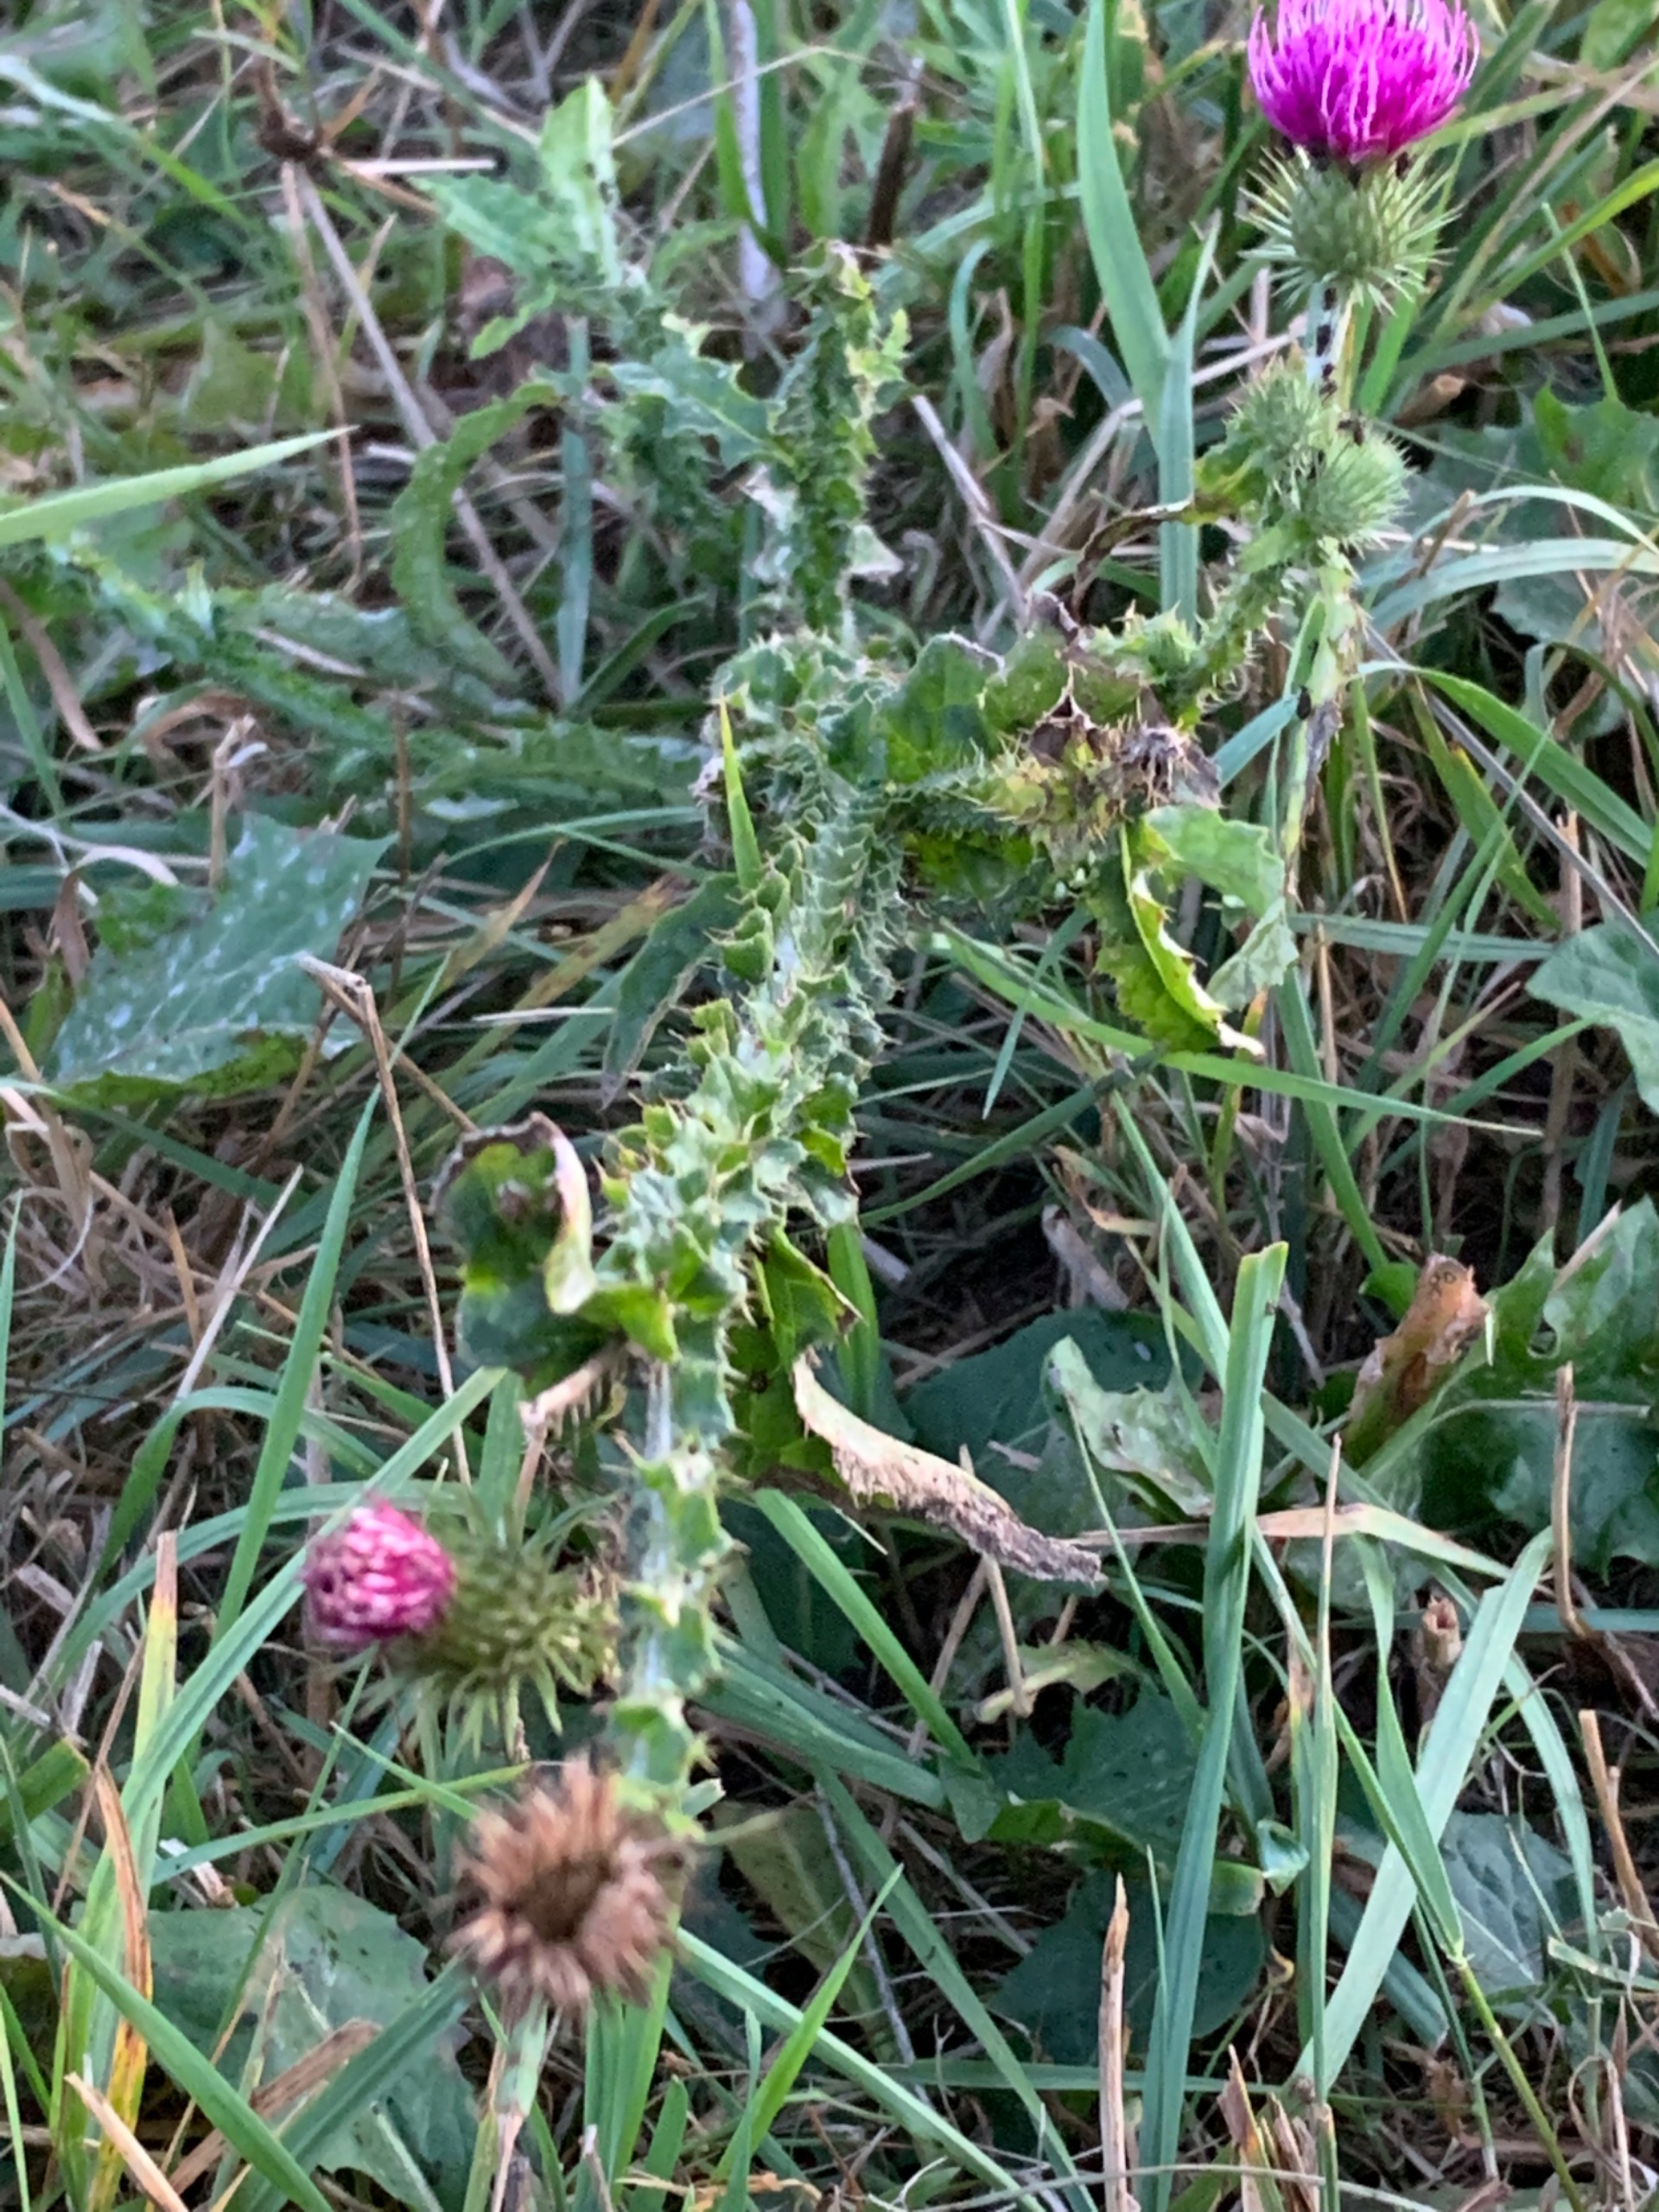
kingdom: Plantae
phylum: Tracheophyta
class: Magnoliopsida
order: Asterales
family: Asteraceae
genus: Carduus
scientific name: Carduus crispus
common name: Kruset tidsel
